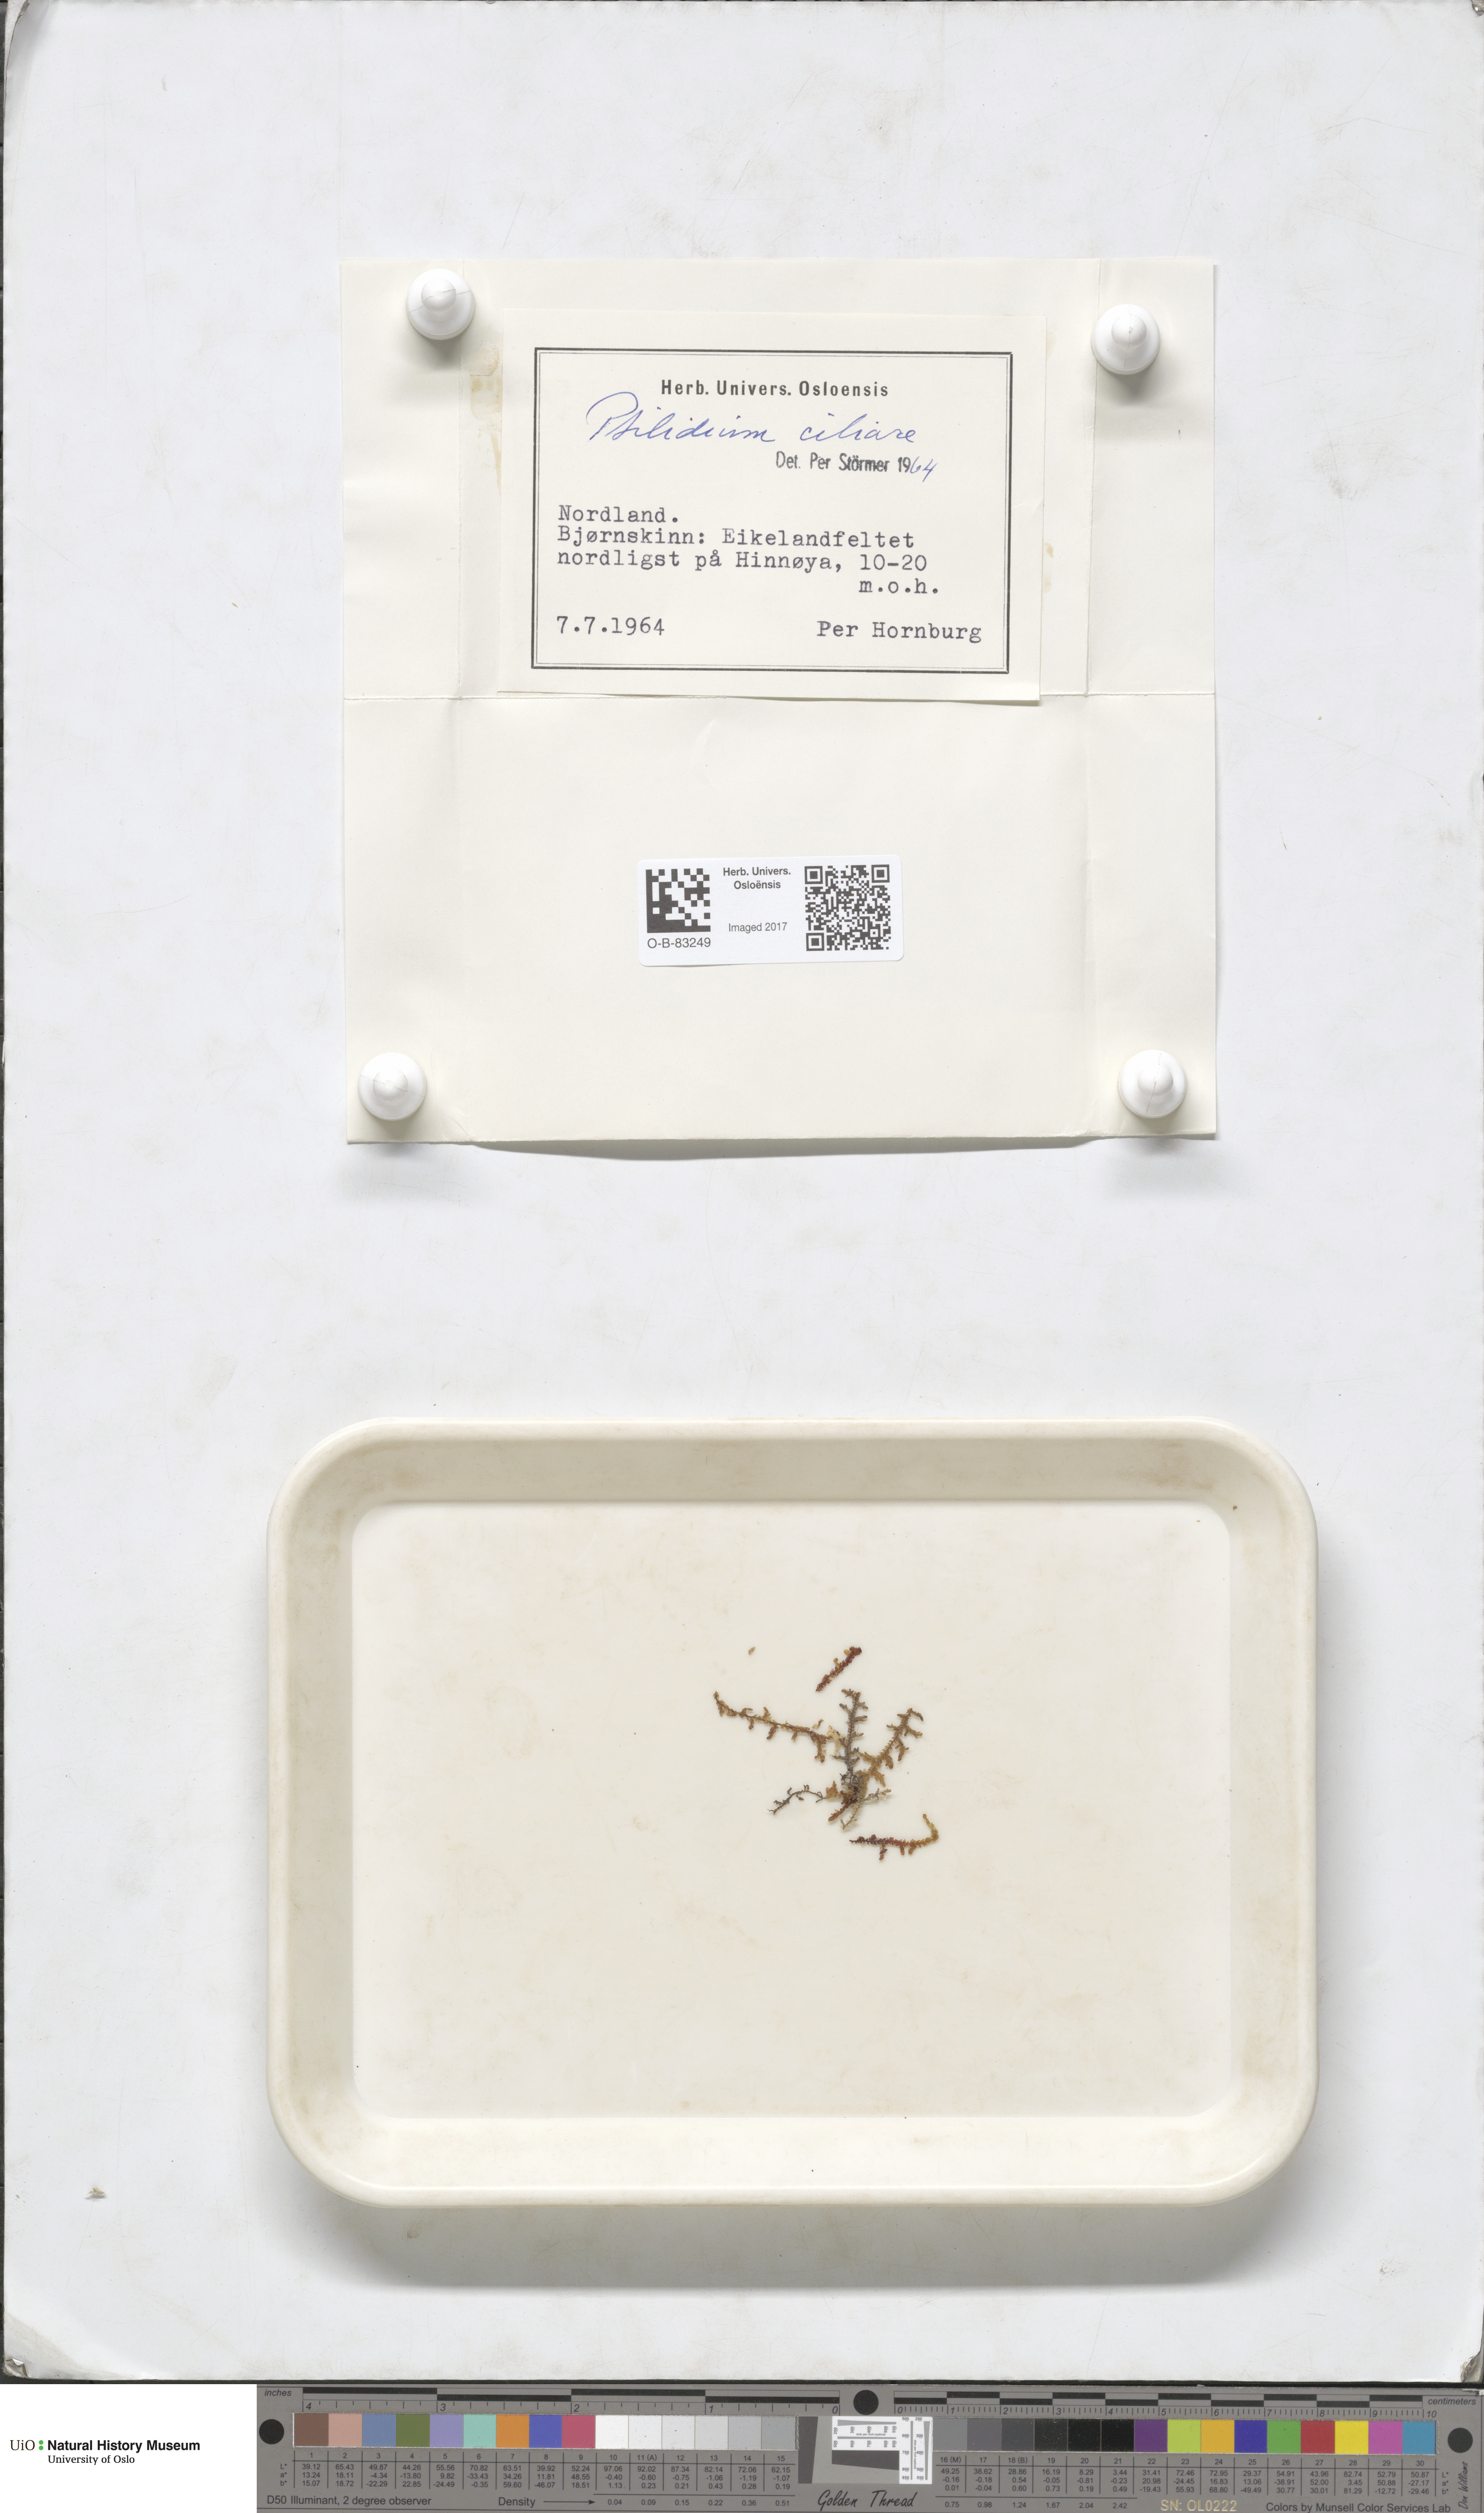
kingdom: Plantae
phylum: Marchantiophyta
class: Jungermanniopsida
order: Ptilidiales
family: Ptilidiaceae
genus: Ptilidium
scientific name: Ptilidium ciliare
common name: Ciliate fringewort
